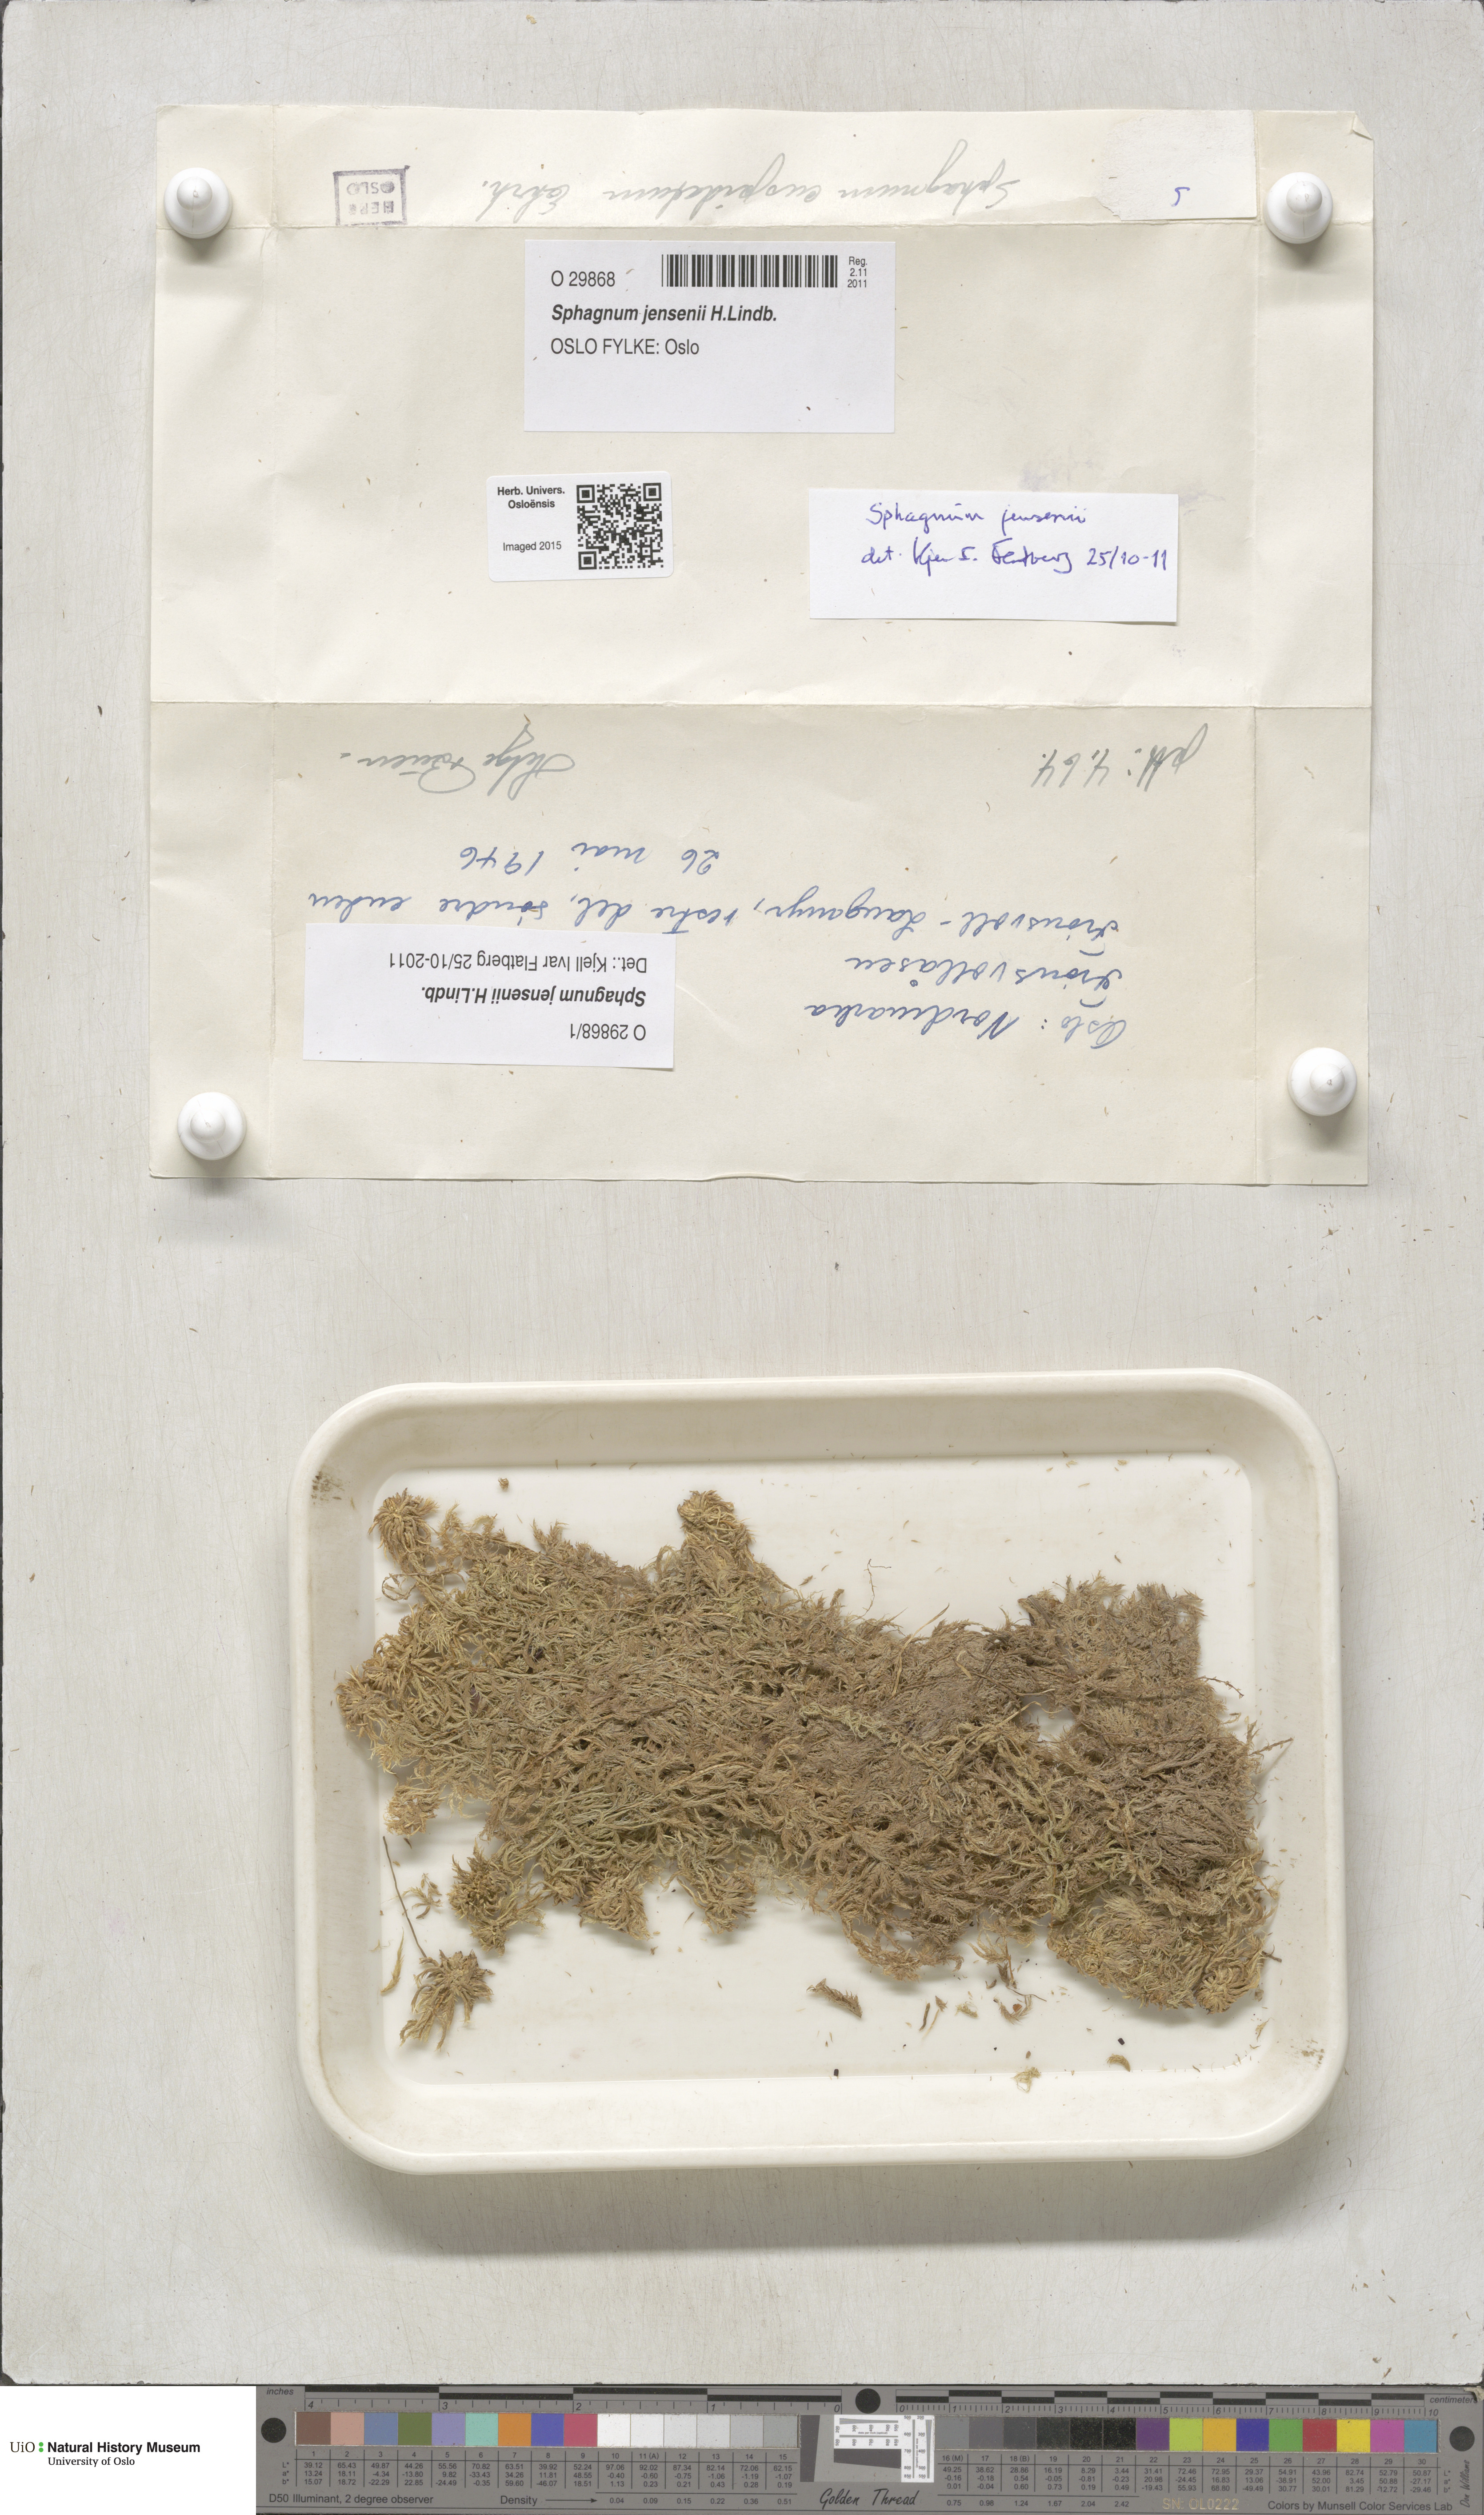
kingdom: Plantae
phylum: Bryophyta
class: Sphagnopsida
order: Sphagnales
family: Sphagnaceae
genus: Sphagnum
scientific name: Sphagnum jensenii
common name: Jensen's peat moss
